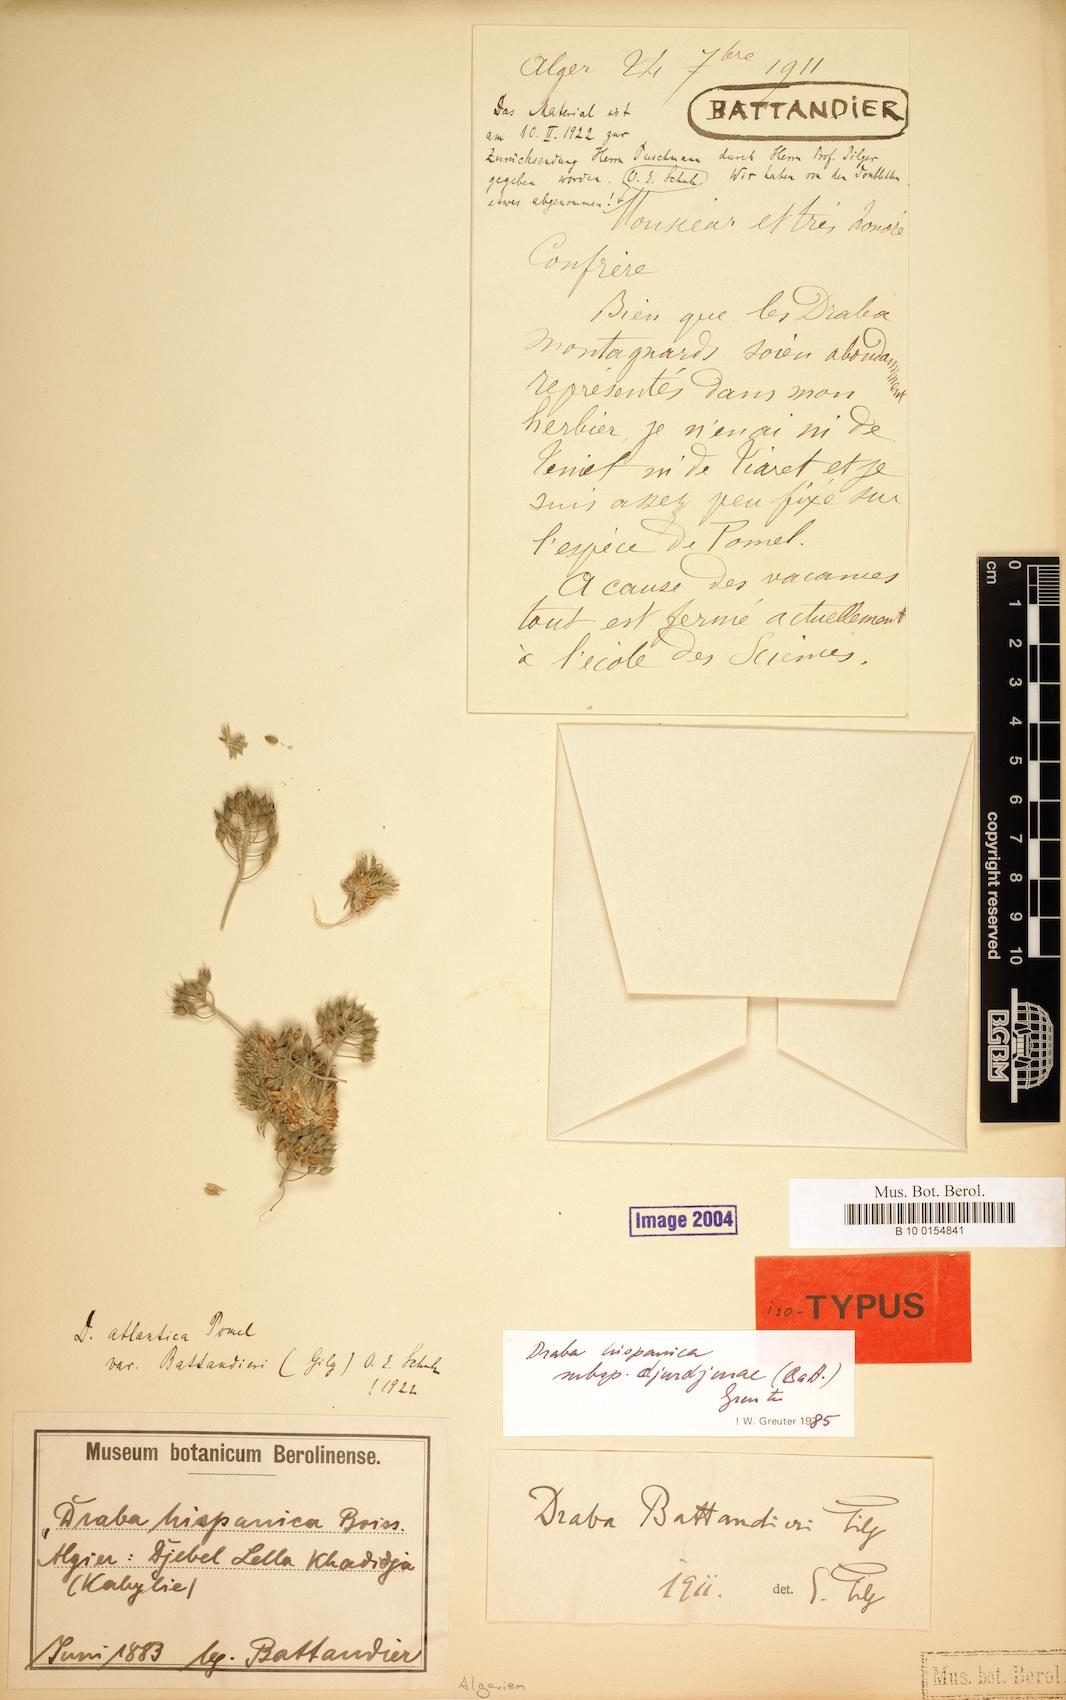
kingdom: Plantae
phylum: Tracheophyta
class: Magnoliopsida
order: Brassicales
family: Brassicaceae
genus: Draba
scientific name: Draba hispanica
